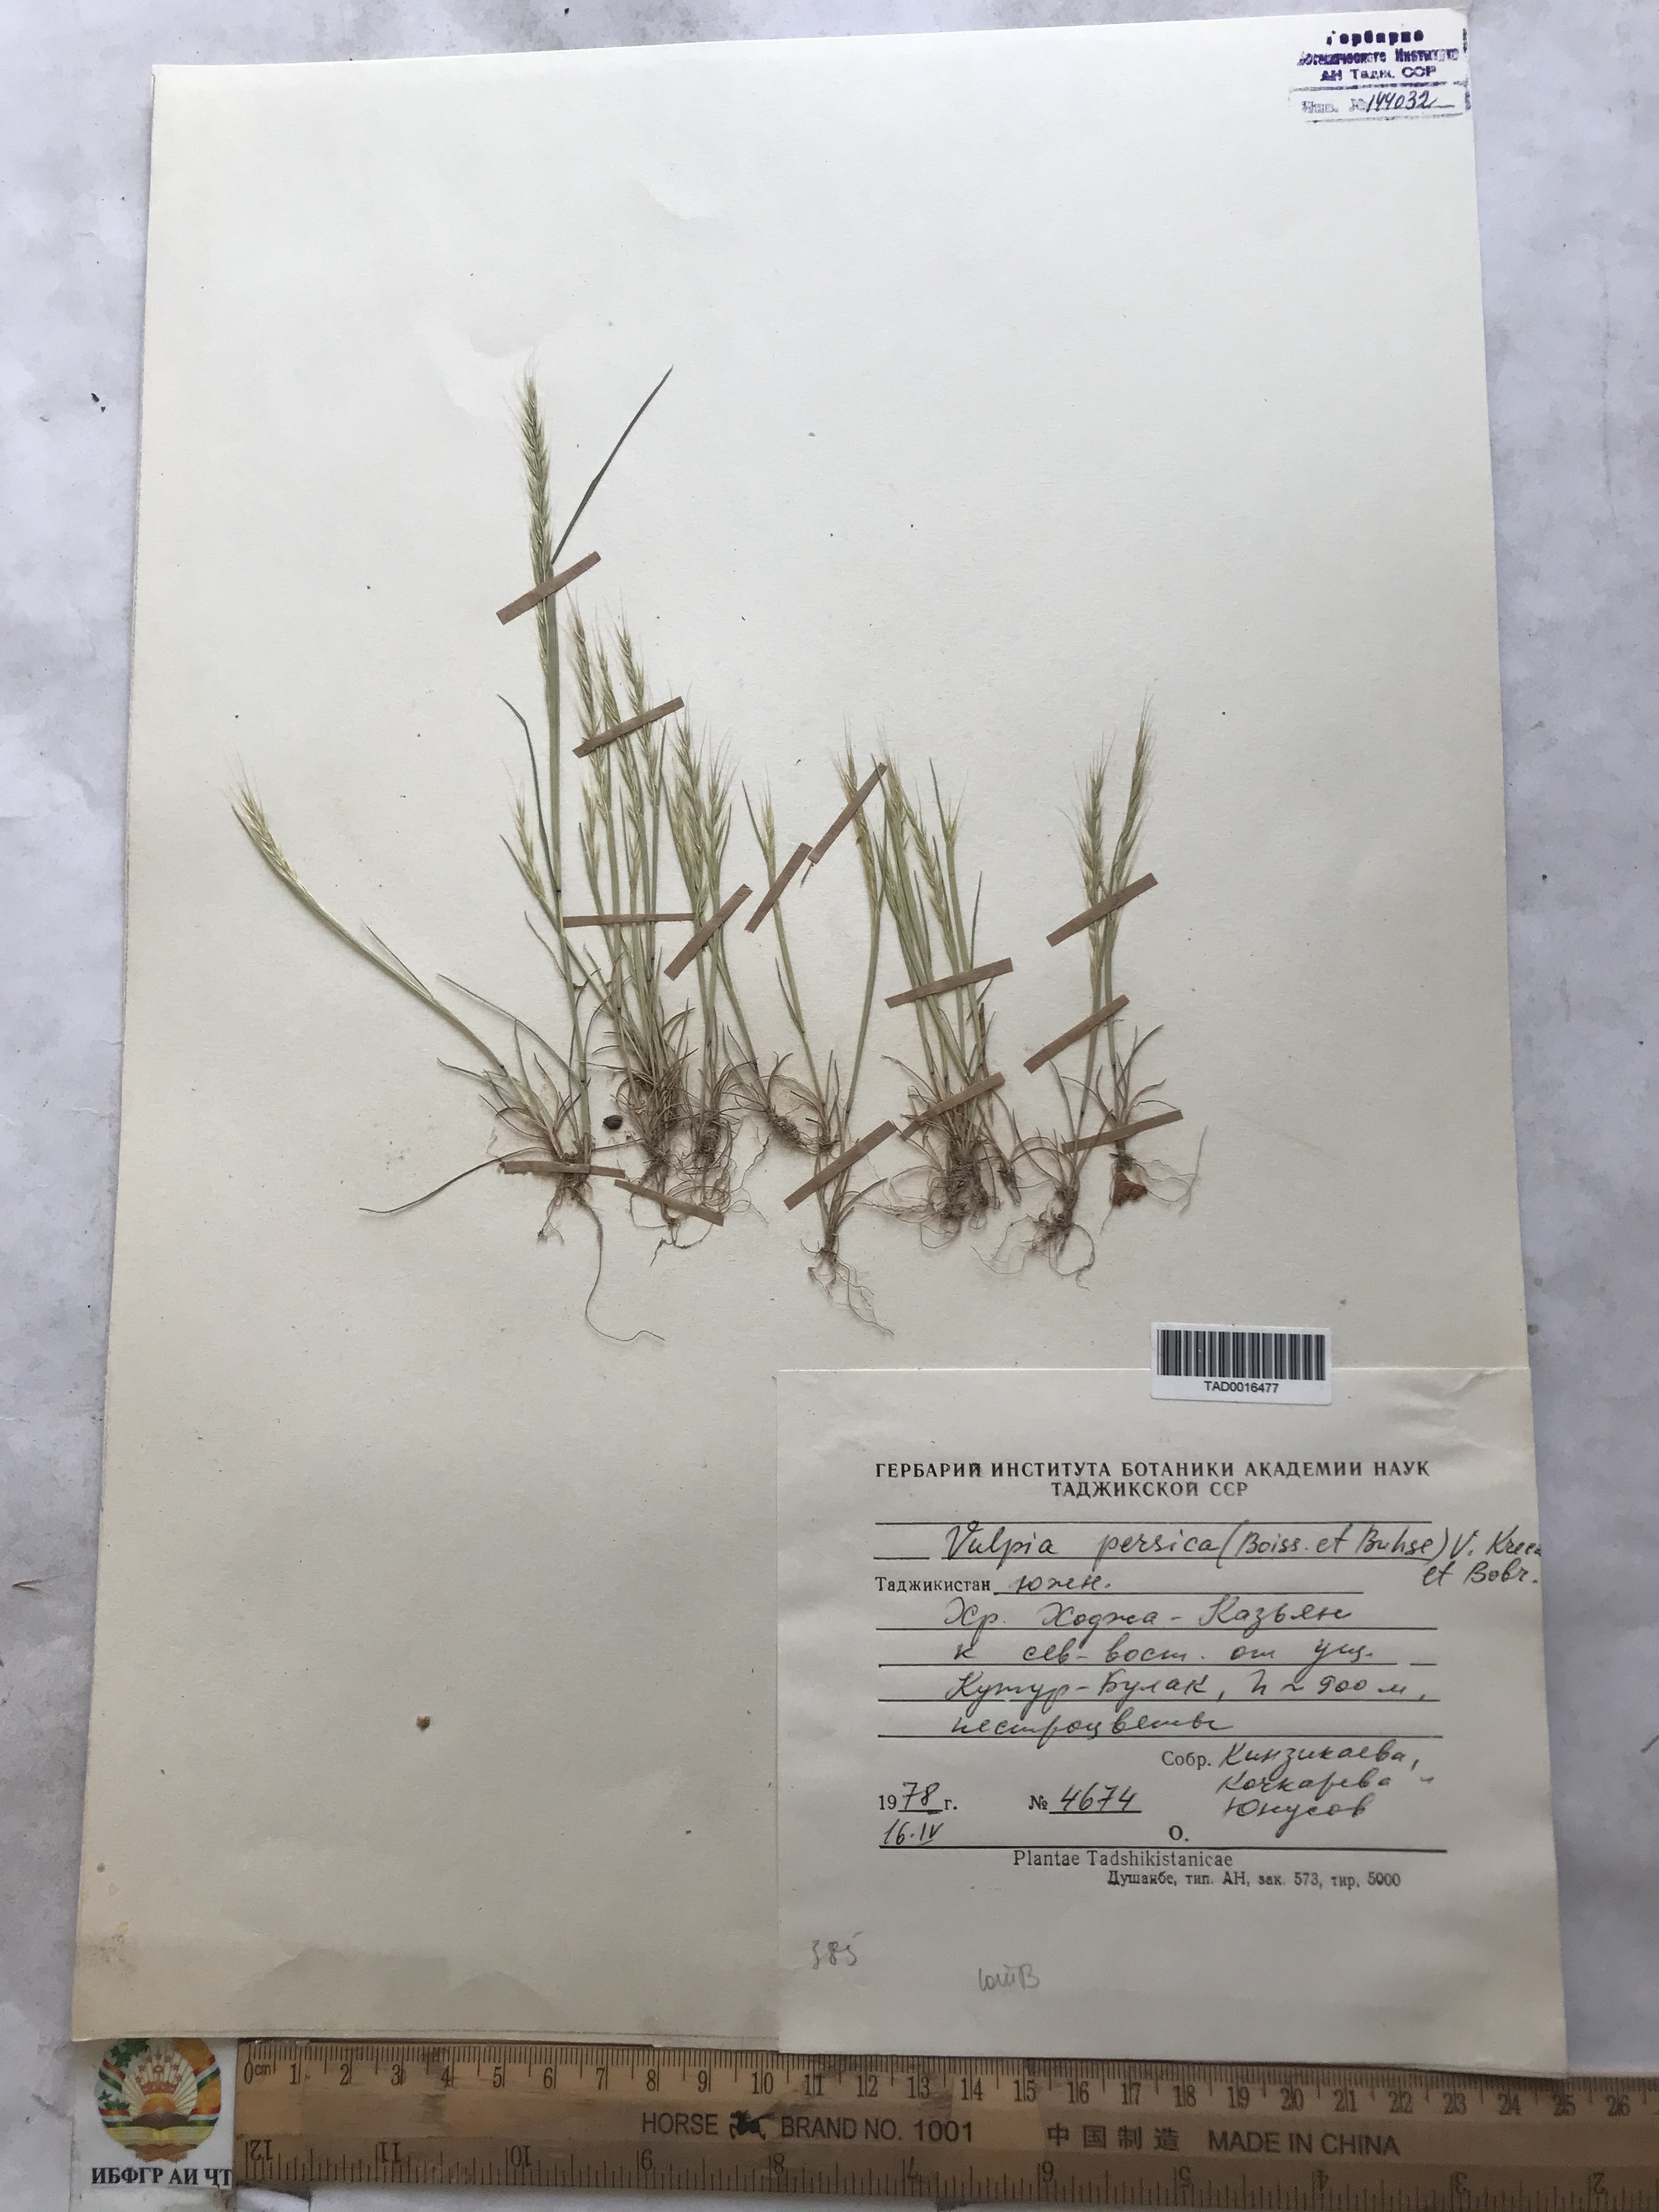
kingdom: Plantae
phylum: Tracheophyta
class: Liliopsida
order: Poales
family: Poaceae
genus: Festuca
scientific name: Festuca Vulpia persica
